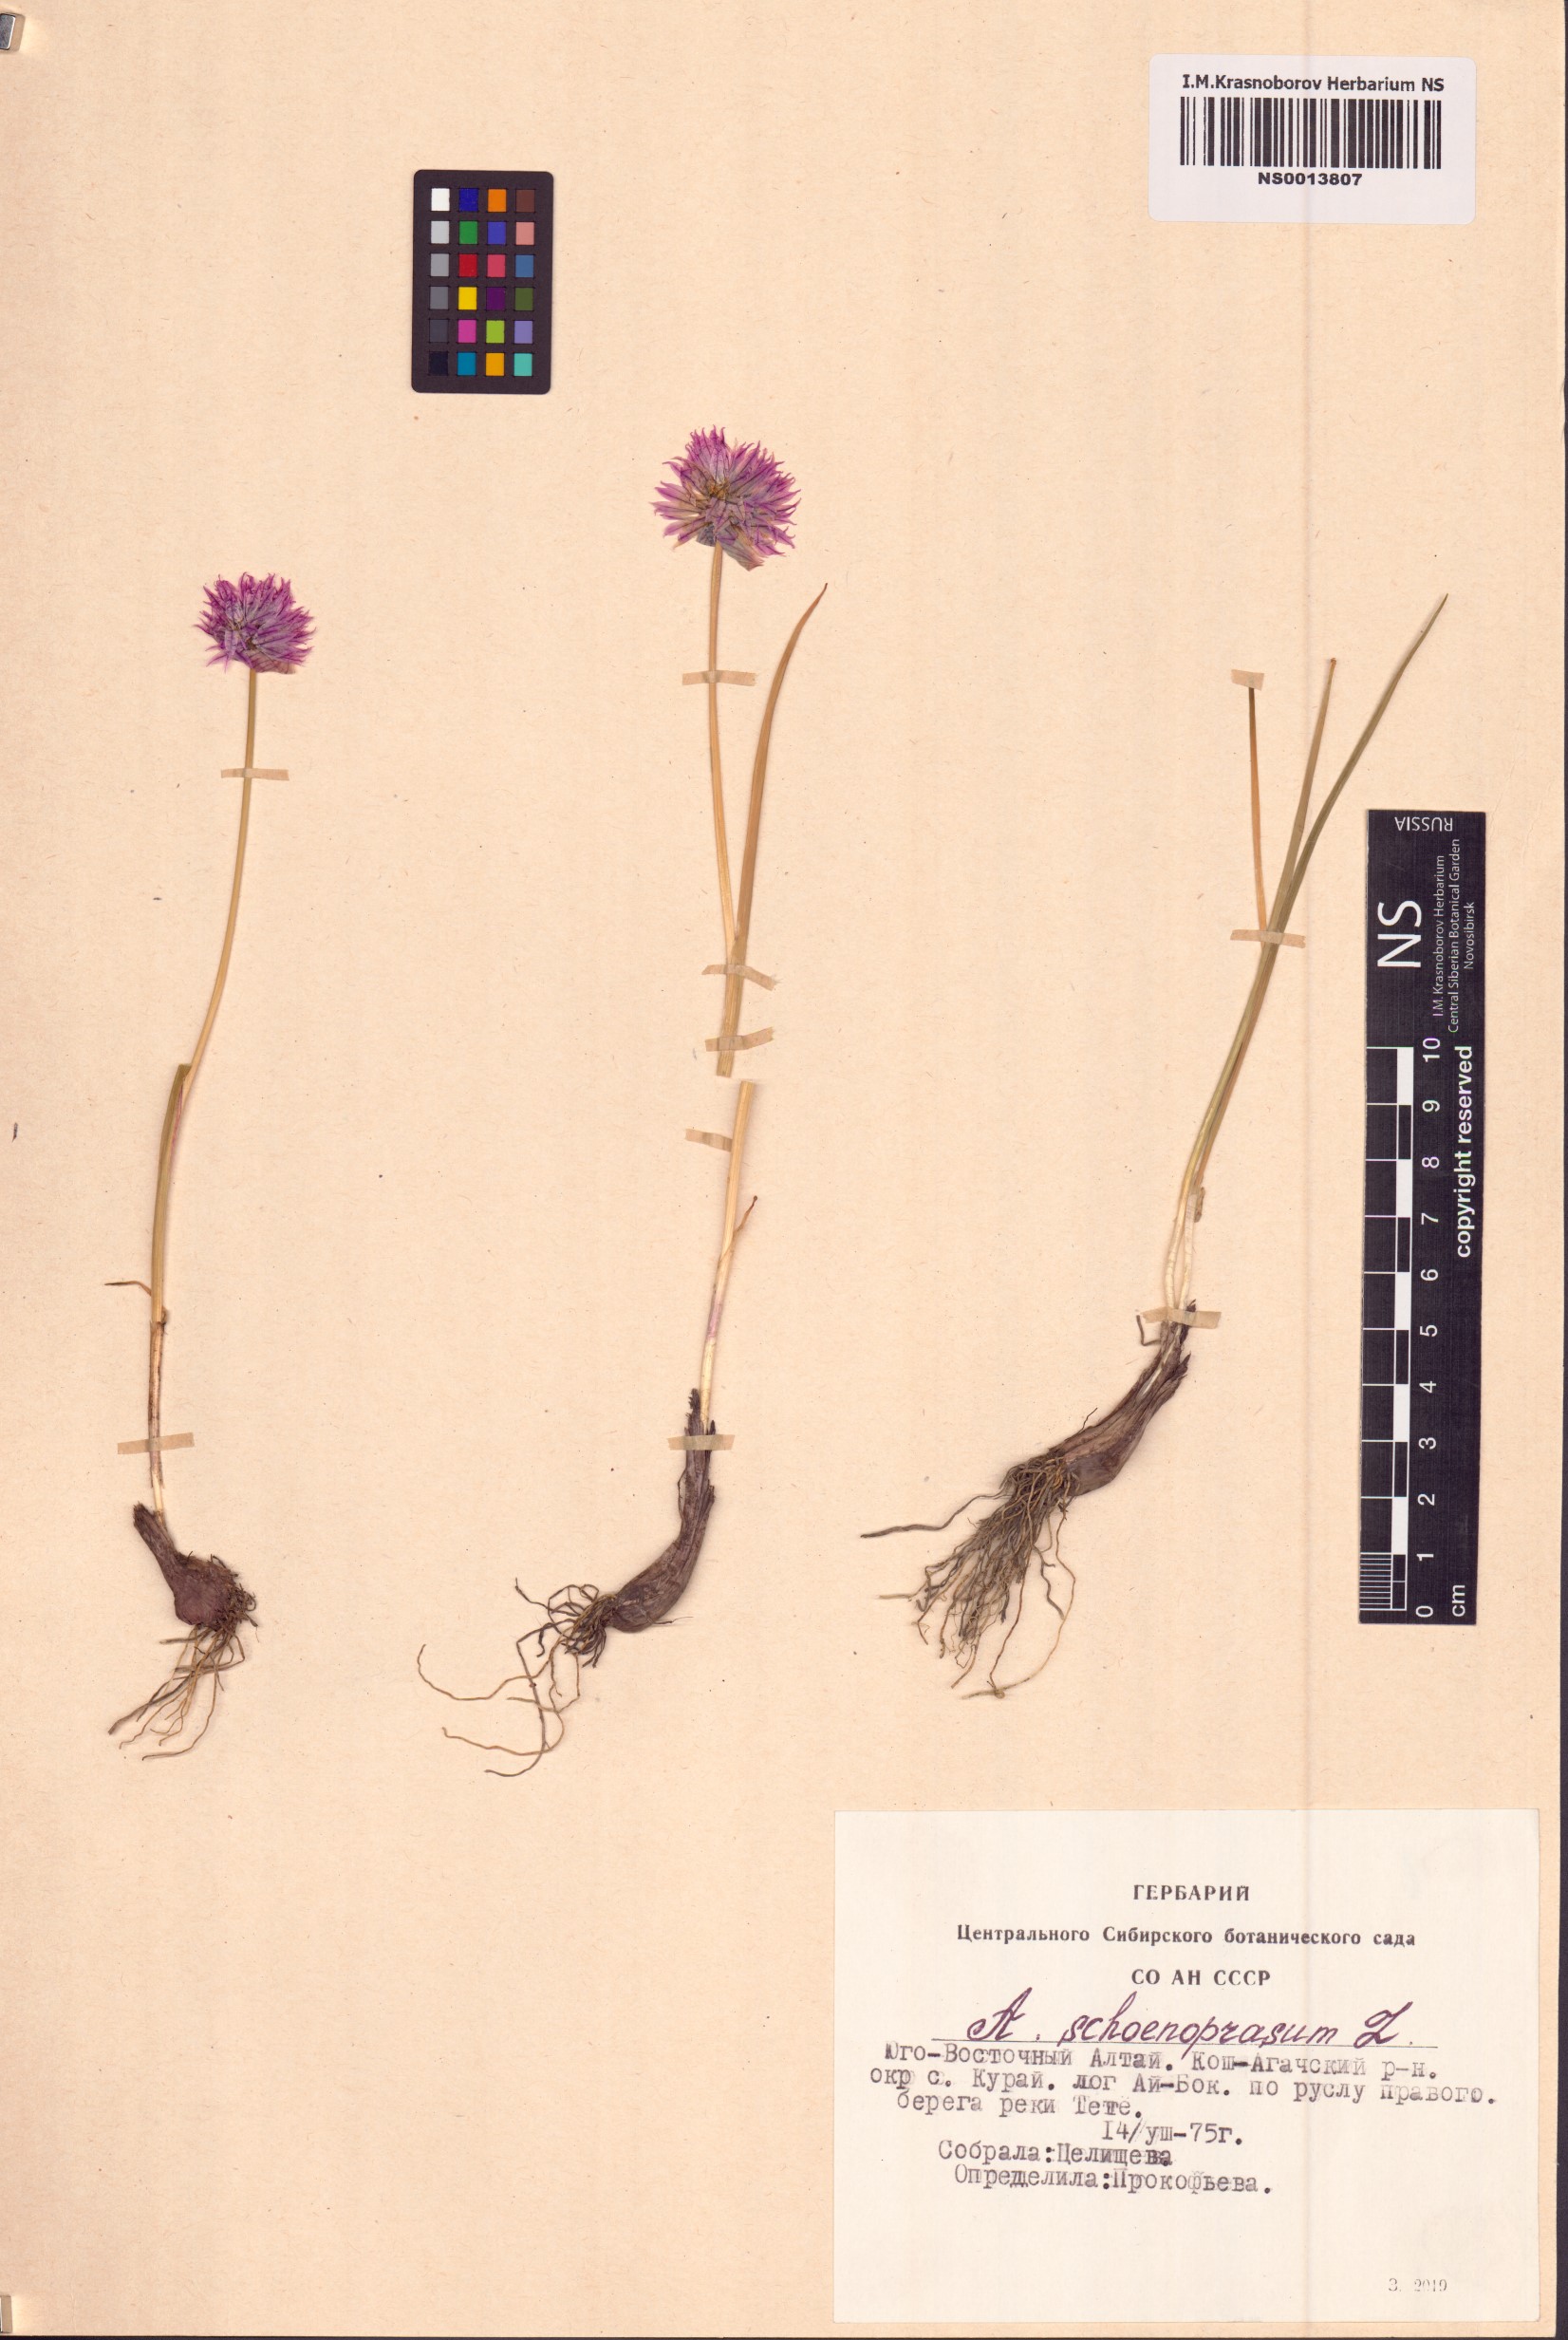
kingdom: Plantae
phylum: Tracheophyta
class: Liliopsida
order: Asparagales
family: Amaryllidaceae
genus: Allium
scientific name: Allium schoenoprasum
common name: Chives
